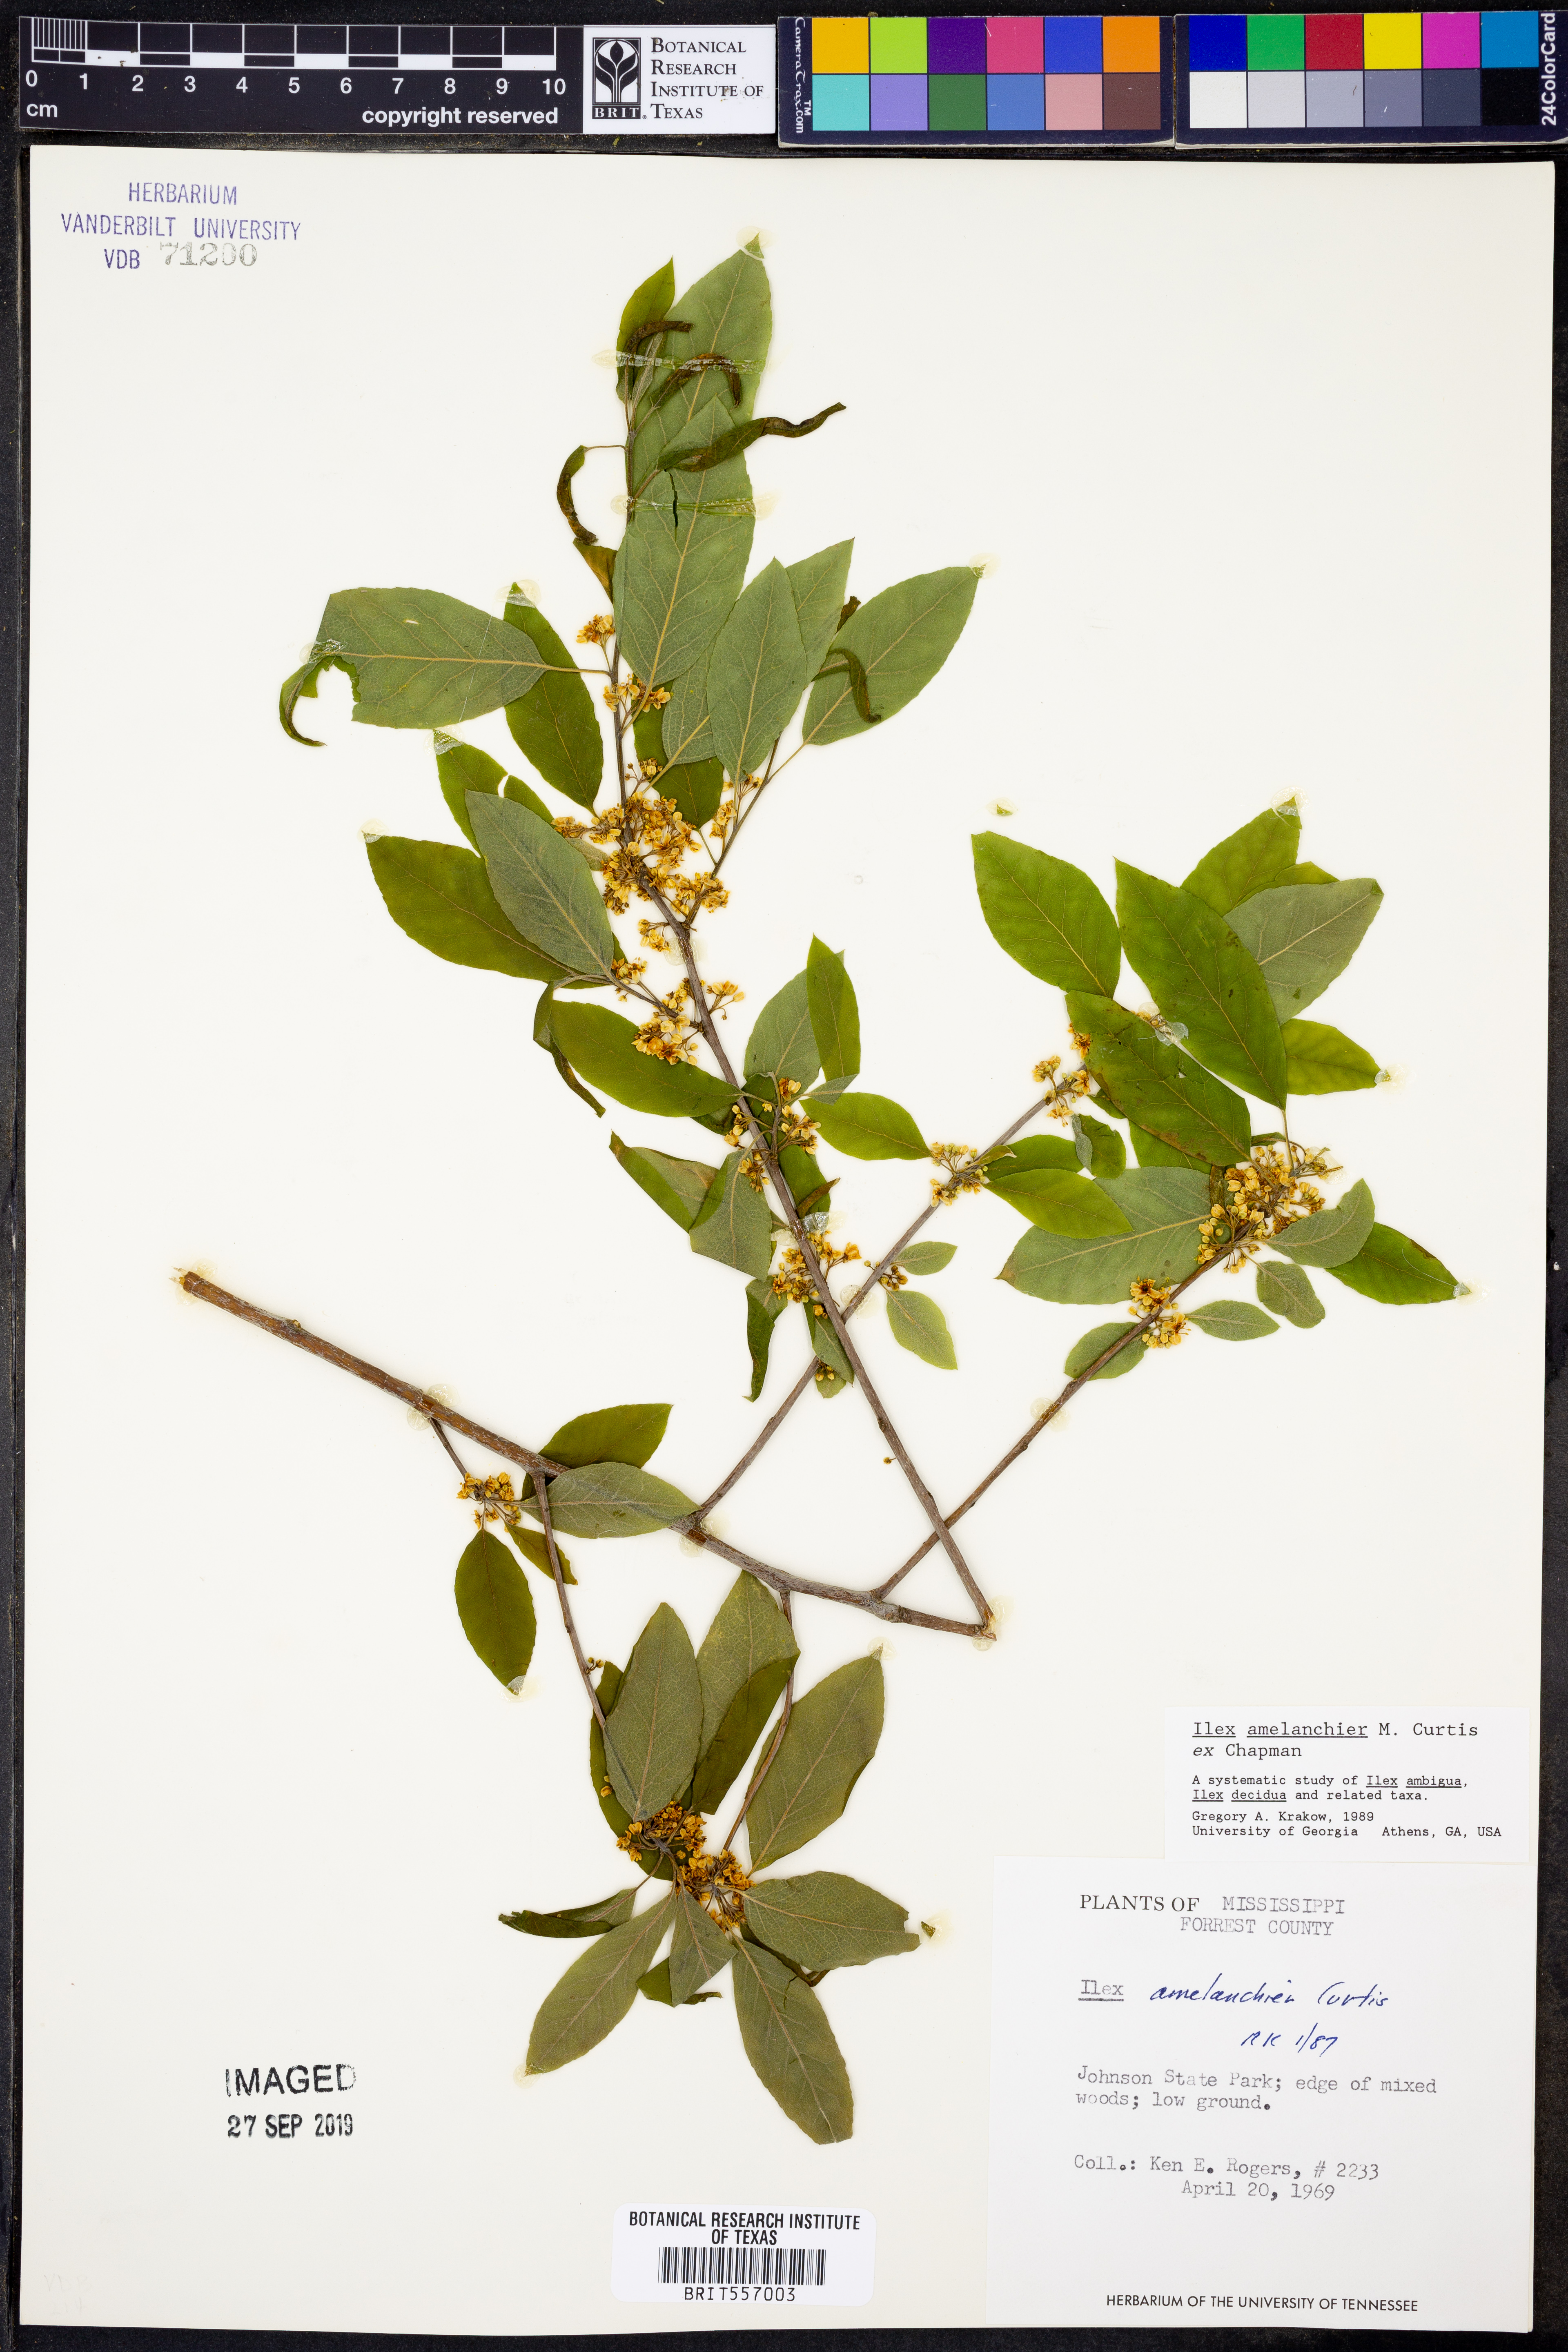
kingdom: Plantae
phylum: Tracheophyta
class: Magnoliopsida
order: Aquifoliales
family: Aquifoliaceae
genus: Ilex
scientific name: Ilex amelanchier
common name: Sarvis holly
